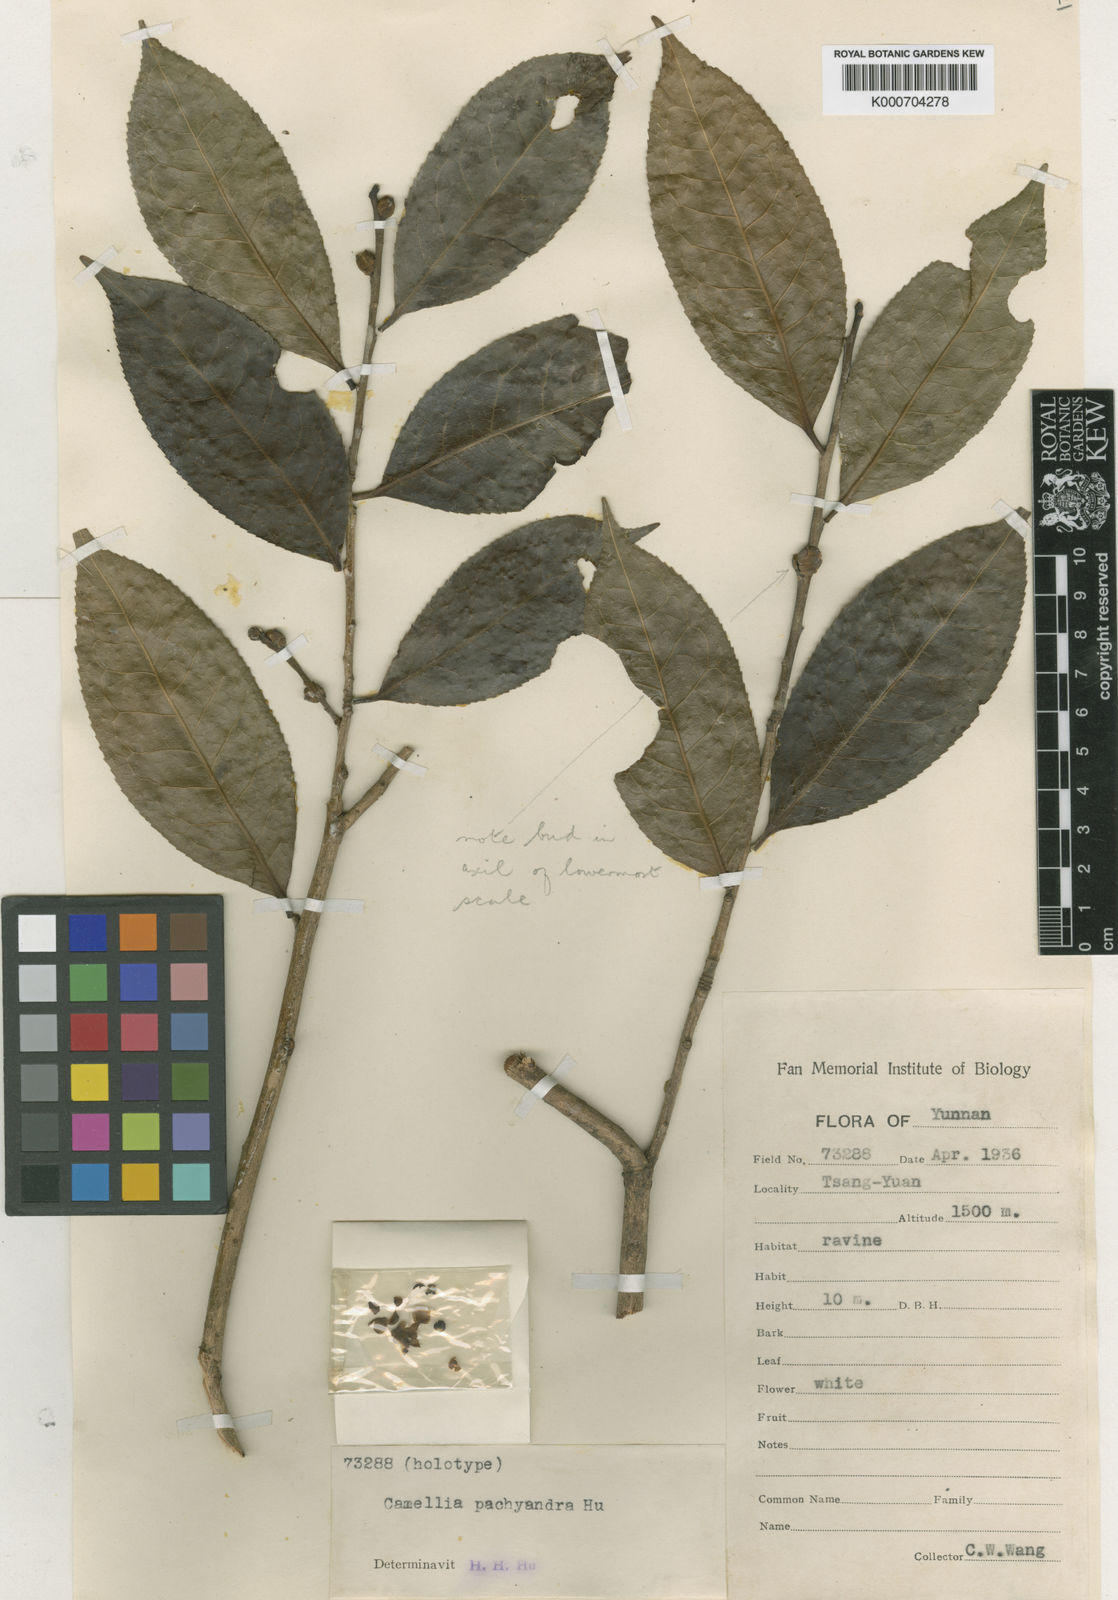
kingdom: Plantae
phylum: Tracheophyta
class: Magnoliopsida
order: Ericales
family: Theaceae
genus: Camellia
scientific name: Camellia pachyandra
